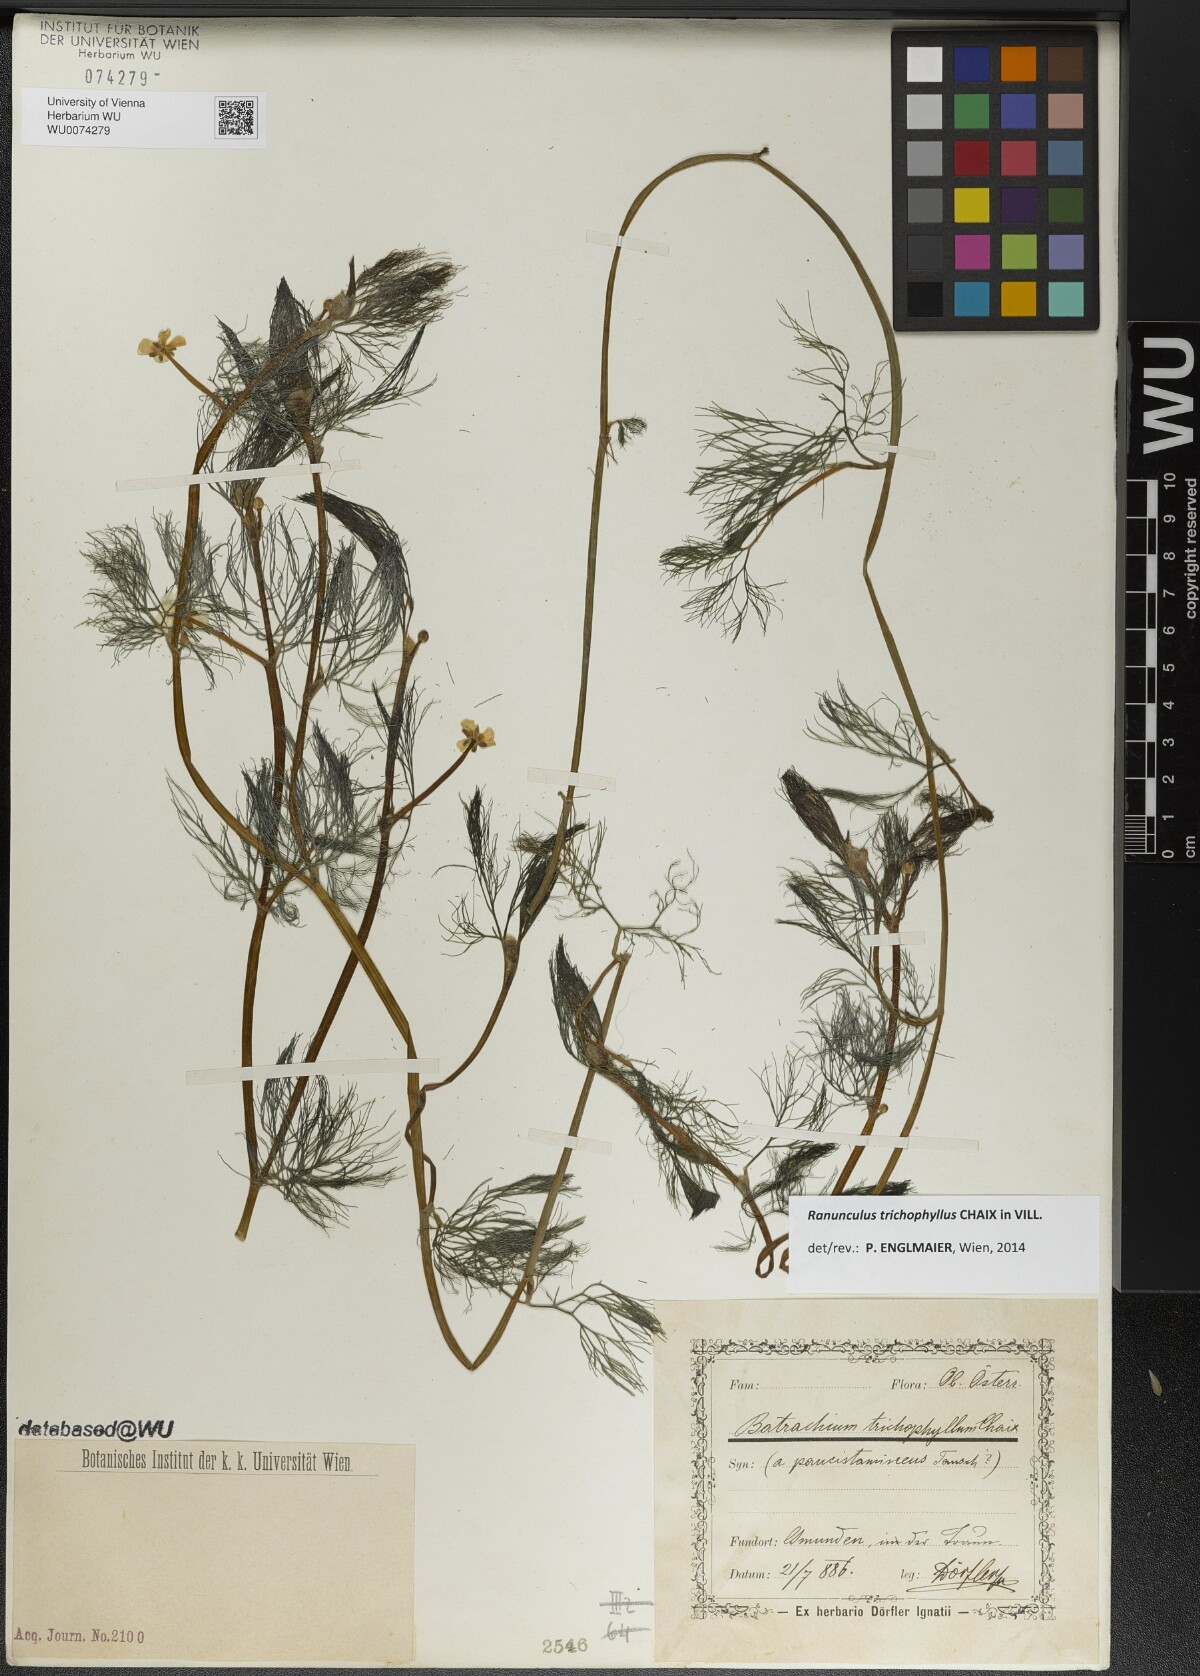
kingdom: Plantae
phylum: Tracheophyta
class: Magnoliopsida
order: Ranunculales
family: Ranunculaceae
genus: Ranunculus
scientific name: Ranunculus trichophyllus
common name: Thread-leaved water-crowfoot
